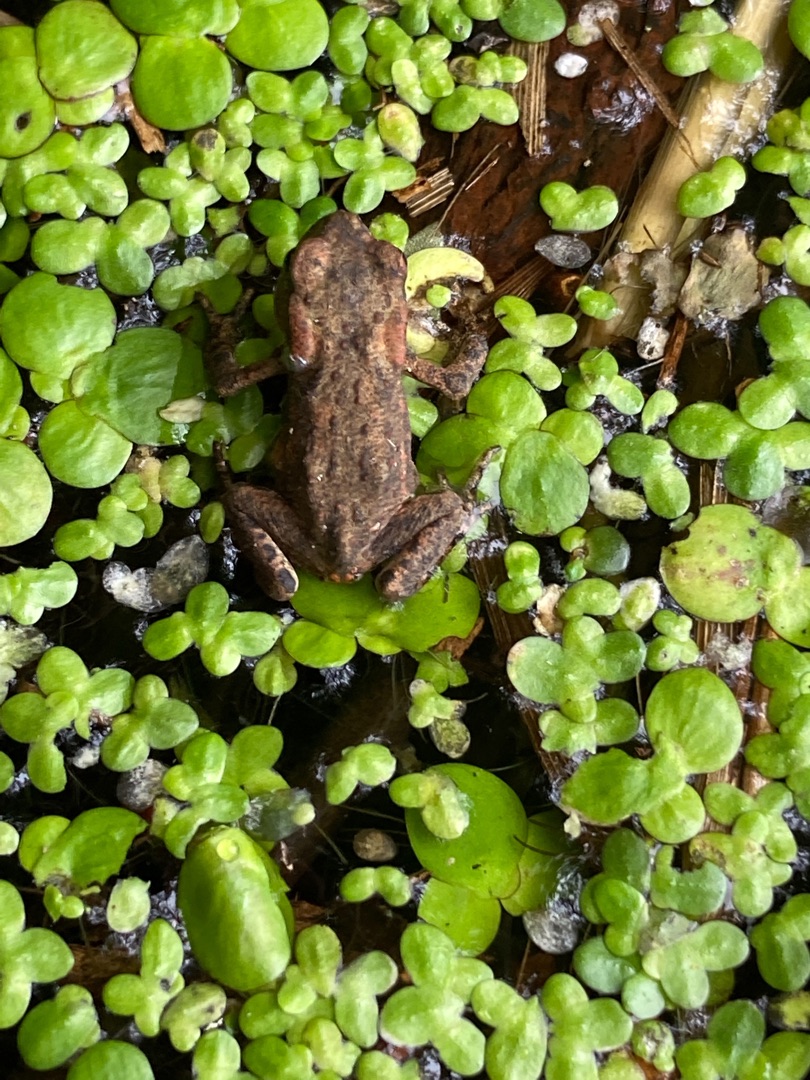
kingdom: Animalia
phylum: Chordata
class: Amphibia
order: Anura
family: Bufonidae
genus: Bufo
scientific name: Bufo bufo
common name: Skrubtudse
